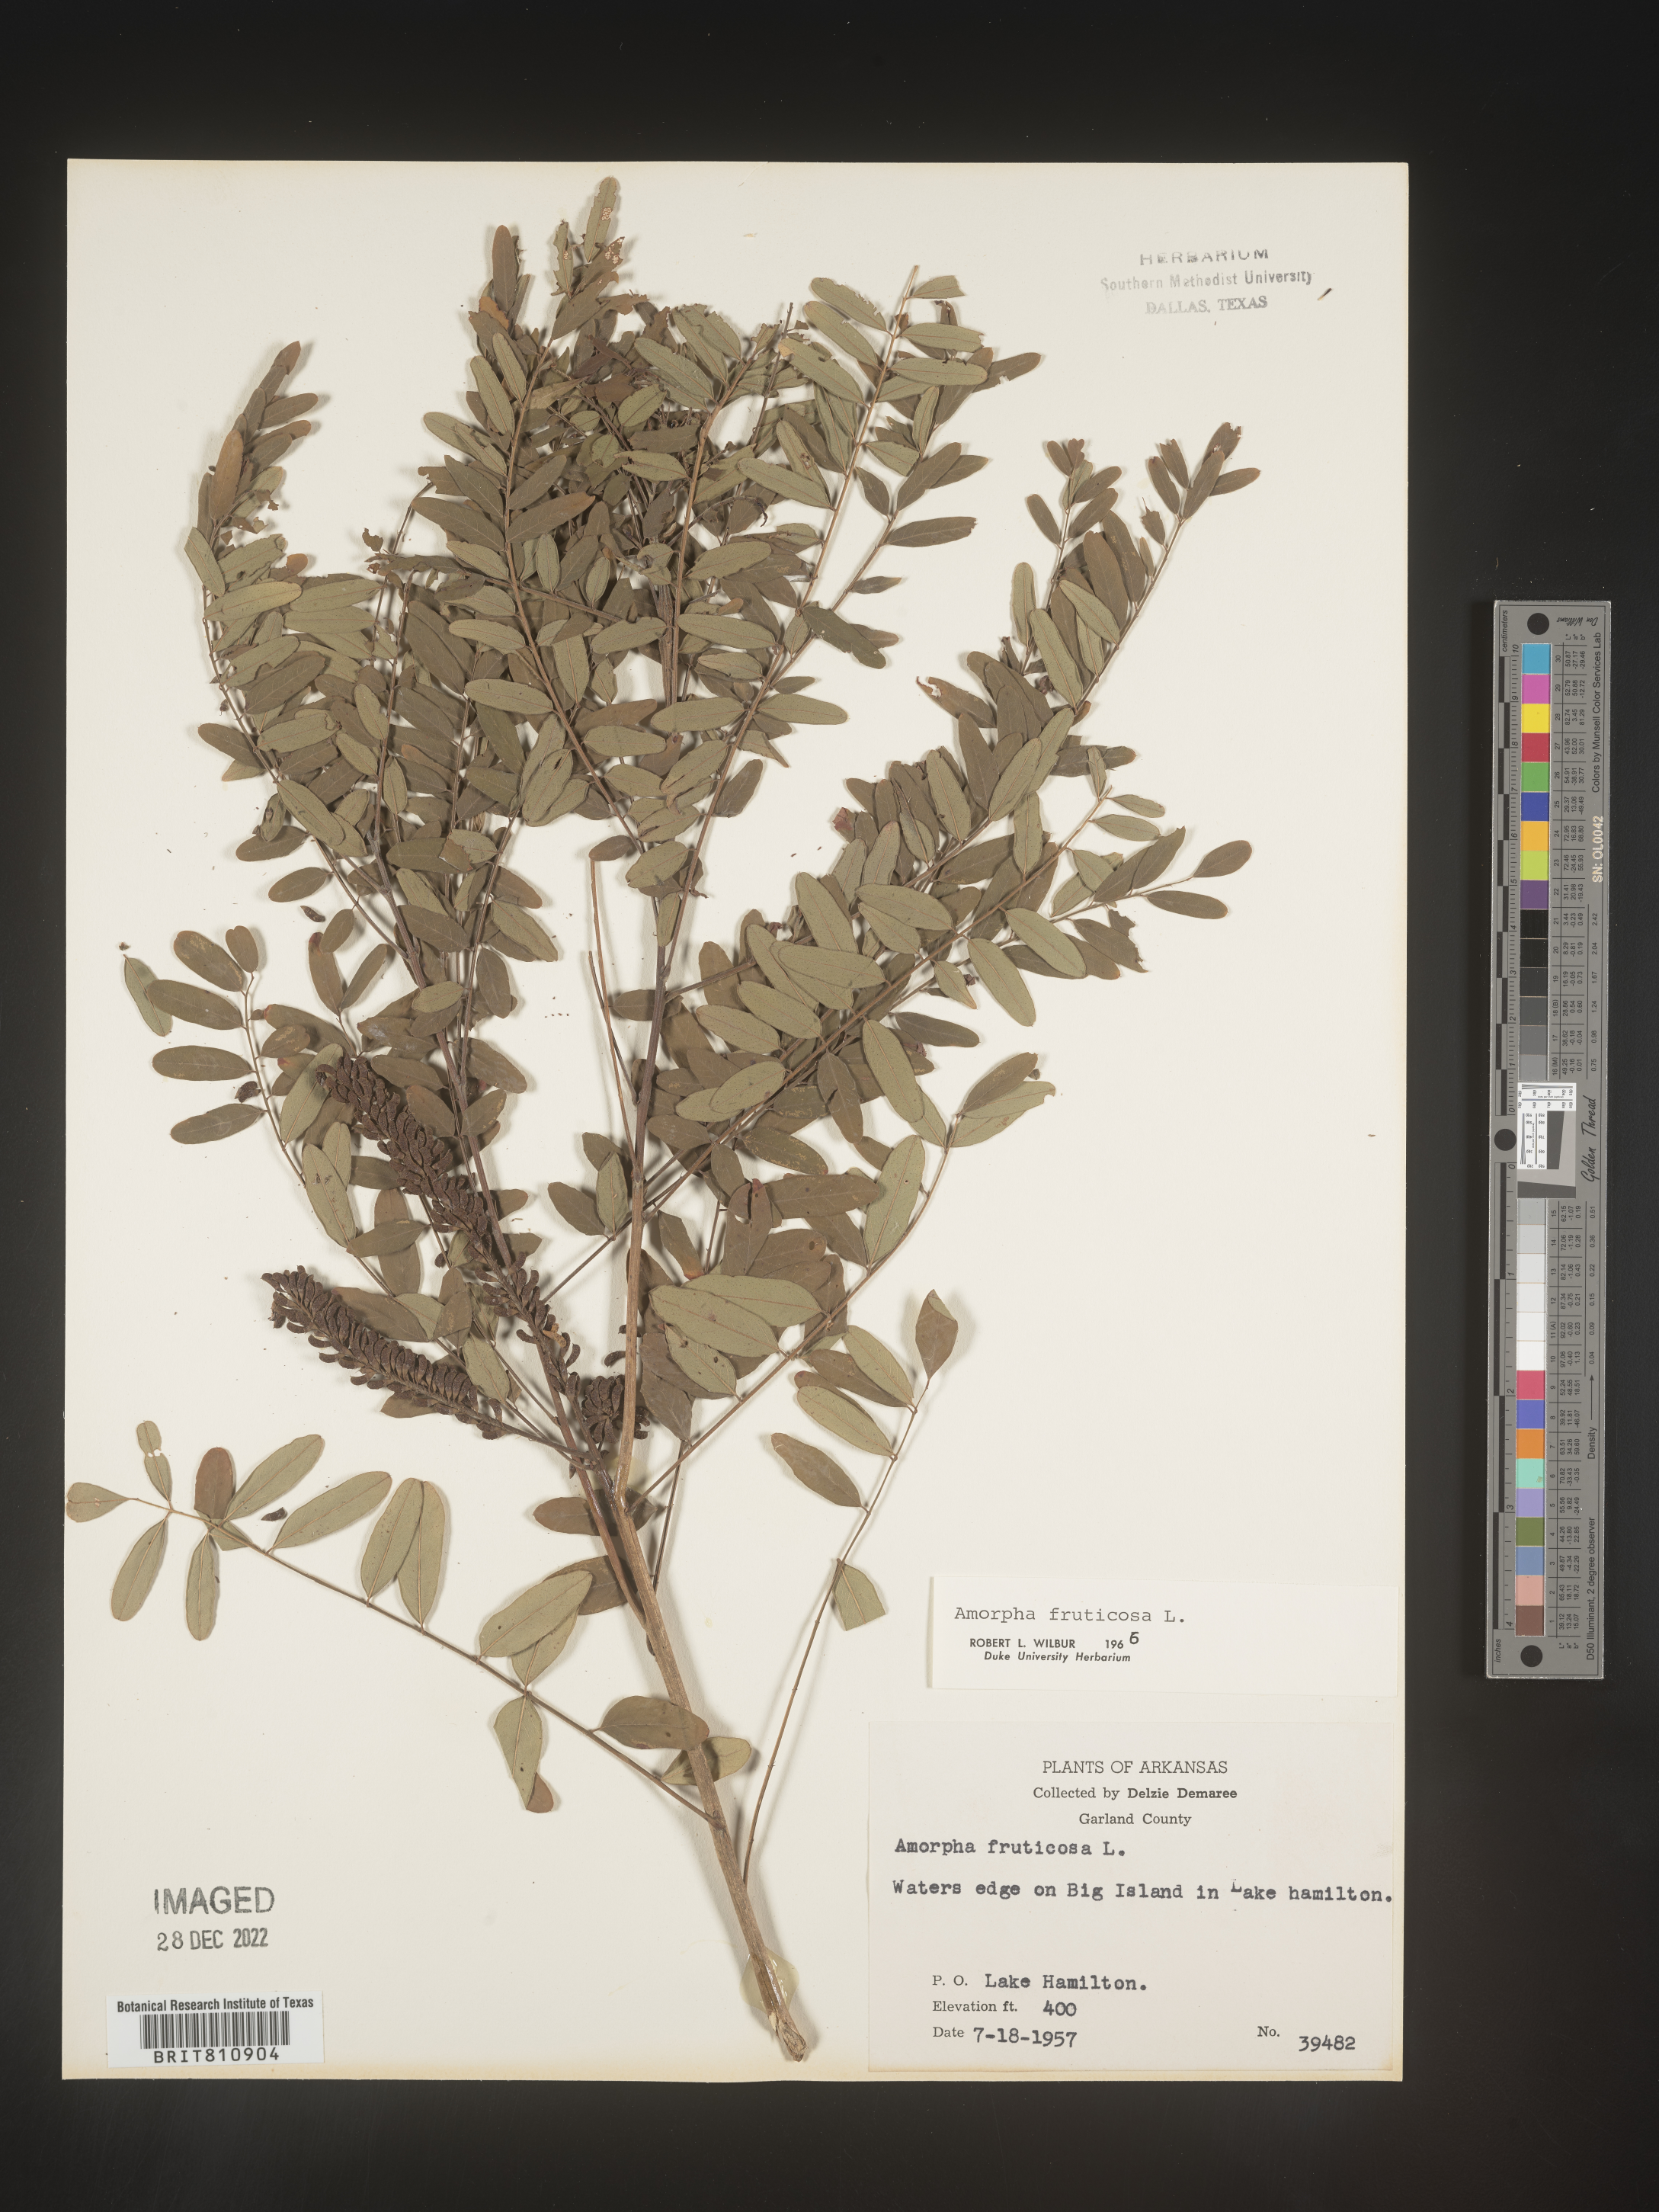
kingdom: Plantae
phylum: Tracheophyta
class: Magnoliopsida
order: Fabales
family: Fabaceae
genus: Amorpha
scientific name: Amorpha fruticosa
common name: False indigo
